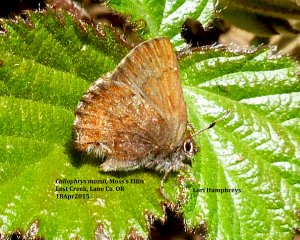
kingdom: Animalia
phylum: Arthropoda
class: Insecta
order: Lepidoptera
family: Lycaenidae
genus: Callophrys
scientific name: Callophrys mossii
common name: Moss' Elfin
